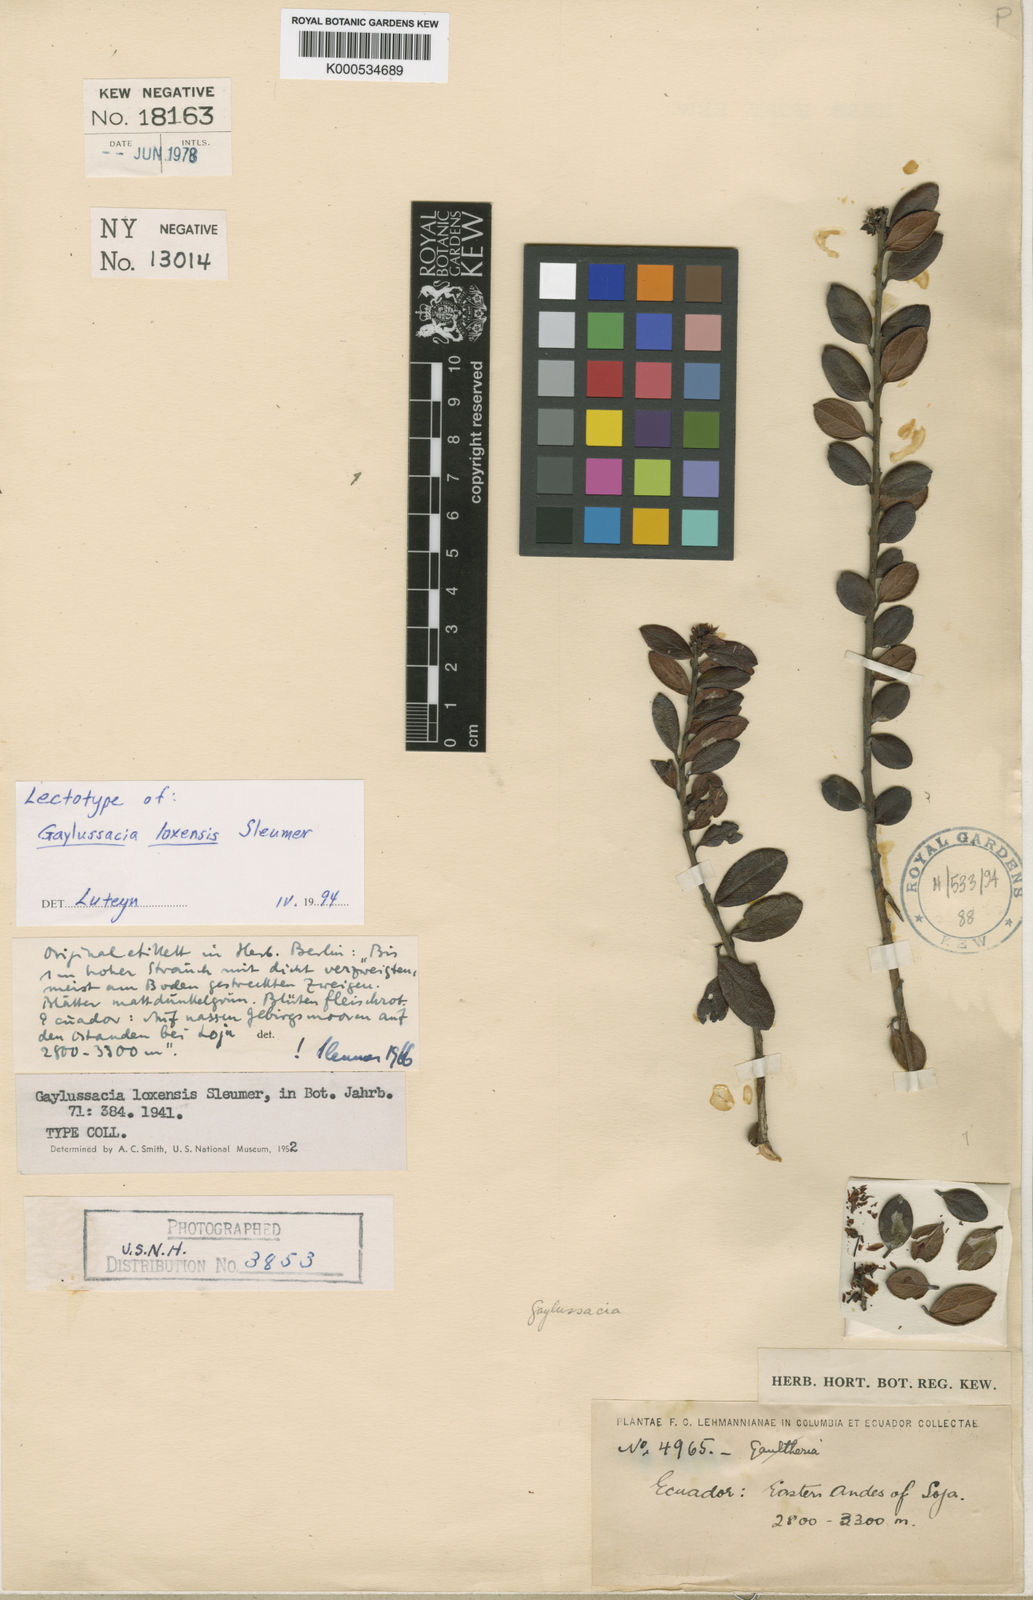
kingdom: Plantae
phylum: Tracheophyta
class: Magnoliopsida
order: Ericales
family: Ericaceae
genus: Gaylussacia
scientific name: Gaylussacia loxensis
